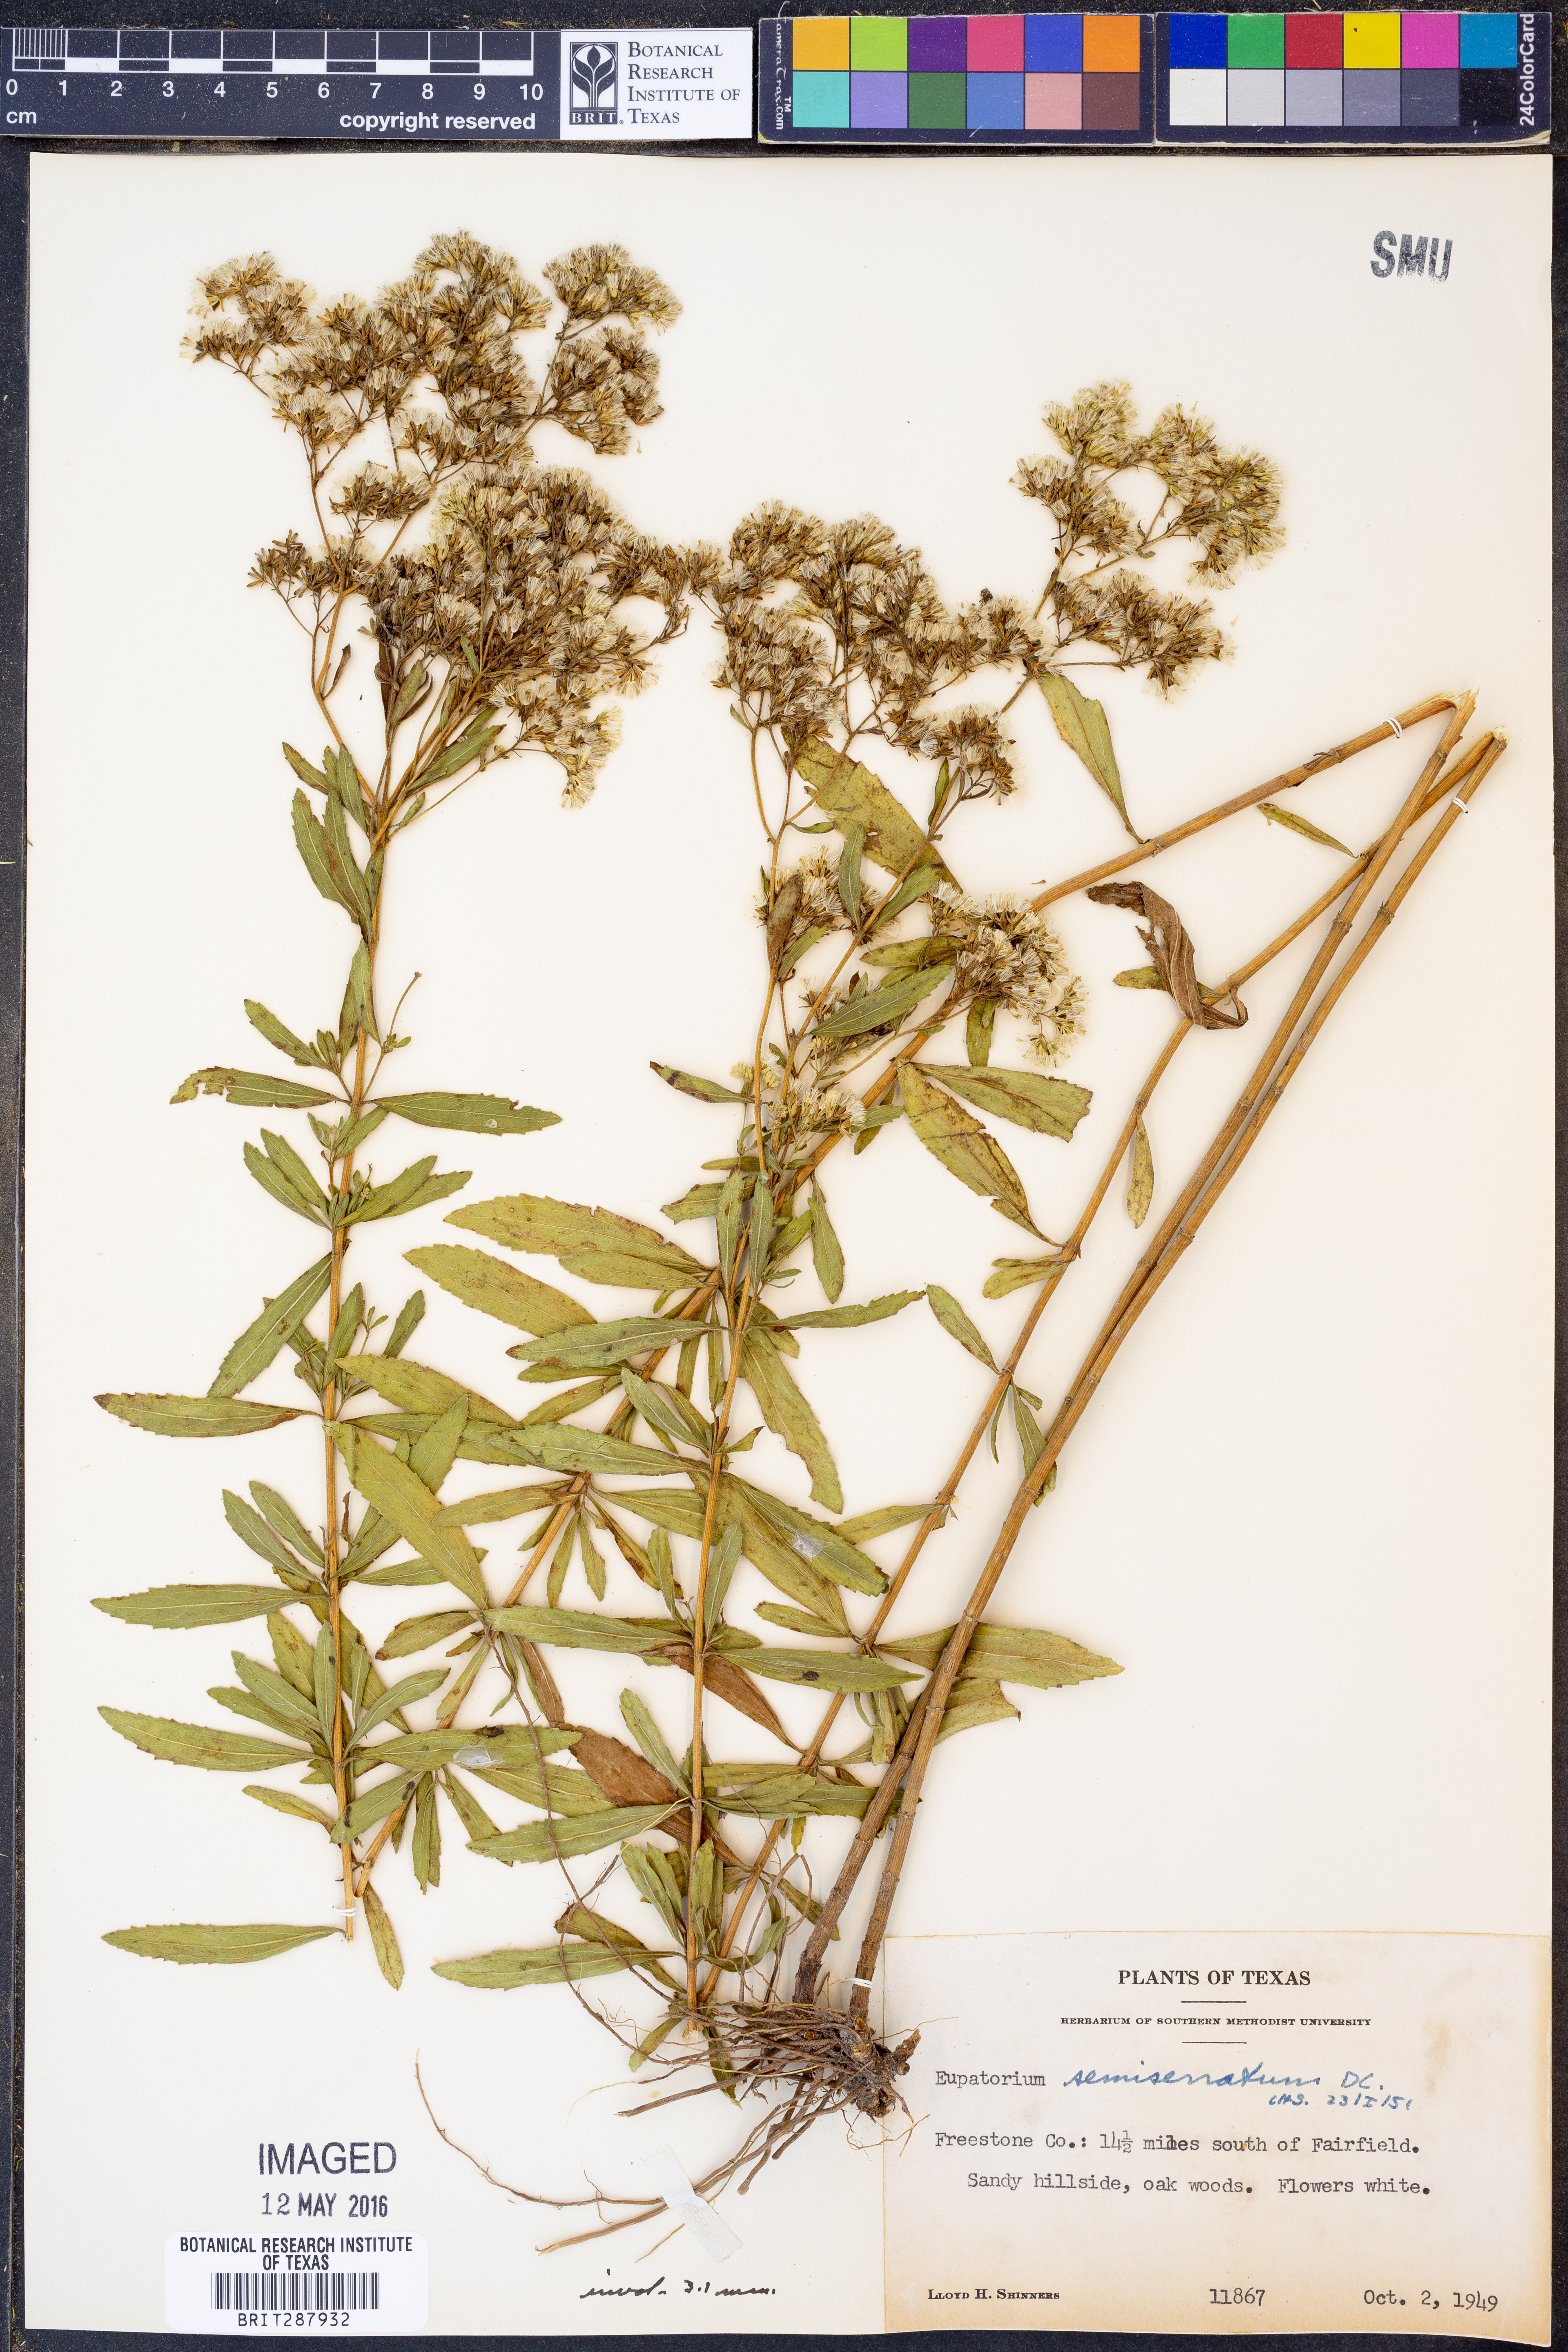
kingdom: Plantae
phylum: Tracheophyta
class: Magnoliopsida
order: Asterales
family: Asteraceae
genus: Eupatorium
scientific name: Eupatorium semiserratum
